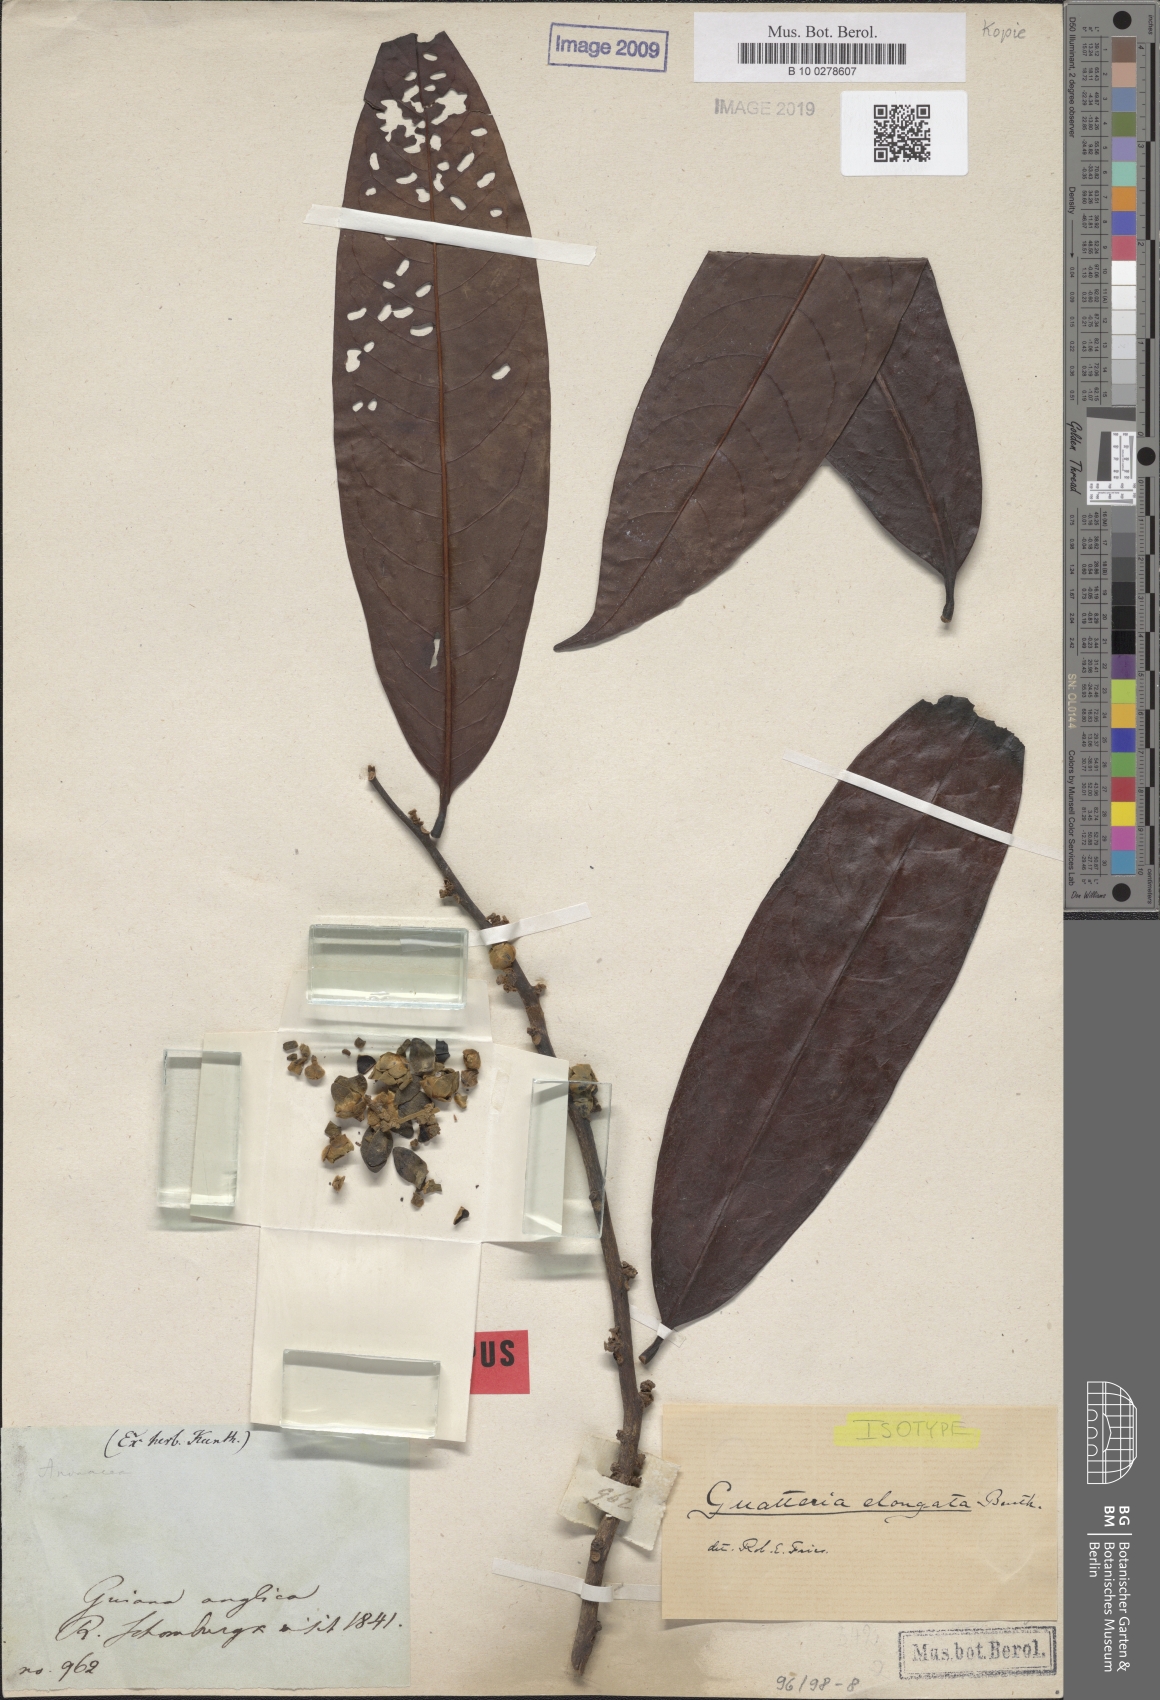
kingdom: Plantae
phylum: Tracheophyta
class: Magnoliopsida
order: Magnoliales
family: Annonaceae
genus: Guatteria
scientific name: Guatteria elongata
